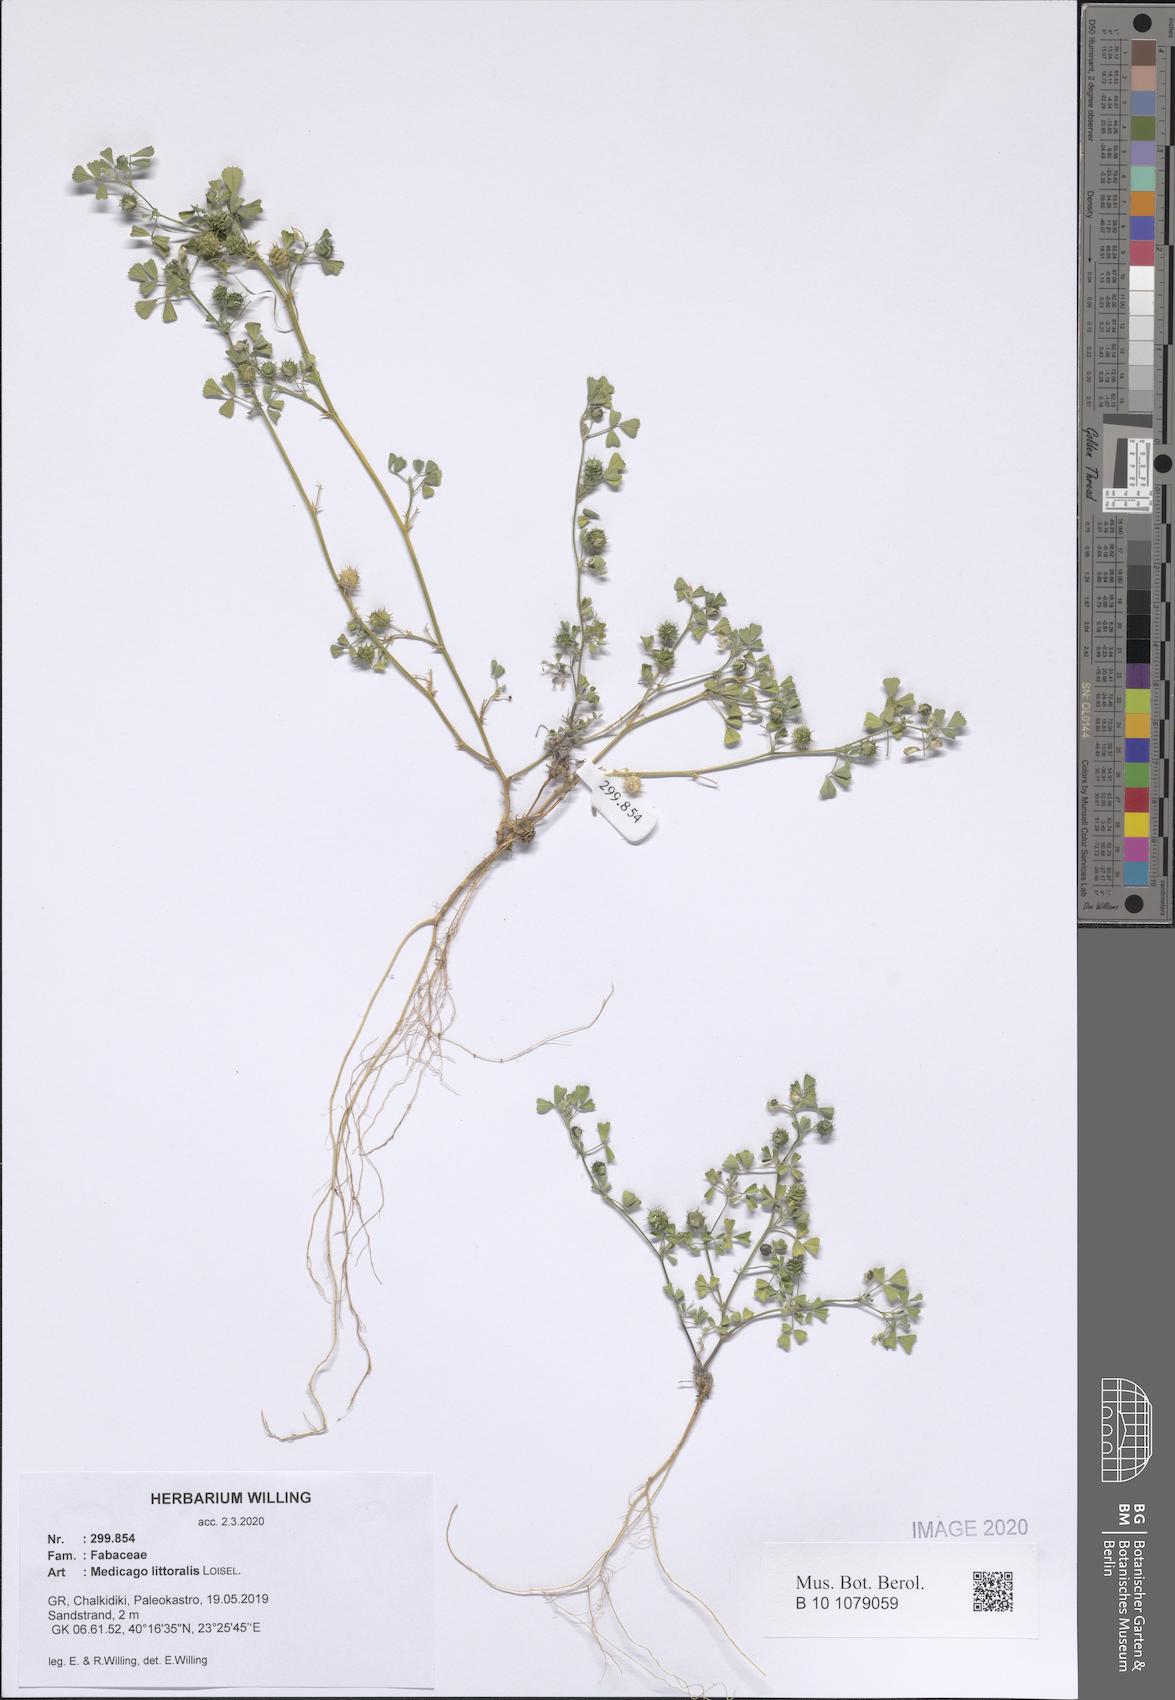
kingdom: Plantae
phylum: Tracheophyta
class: Magnoliopsida
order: Fabales
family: Fabaceae
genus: Medicago
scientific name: Medicago littoralis
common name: Shore medick
